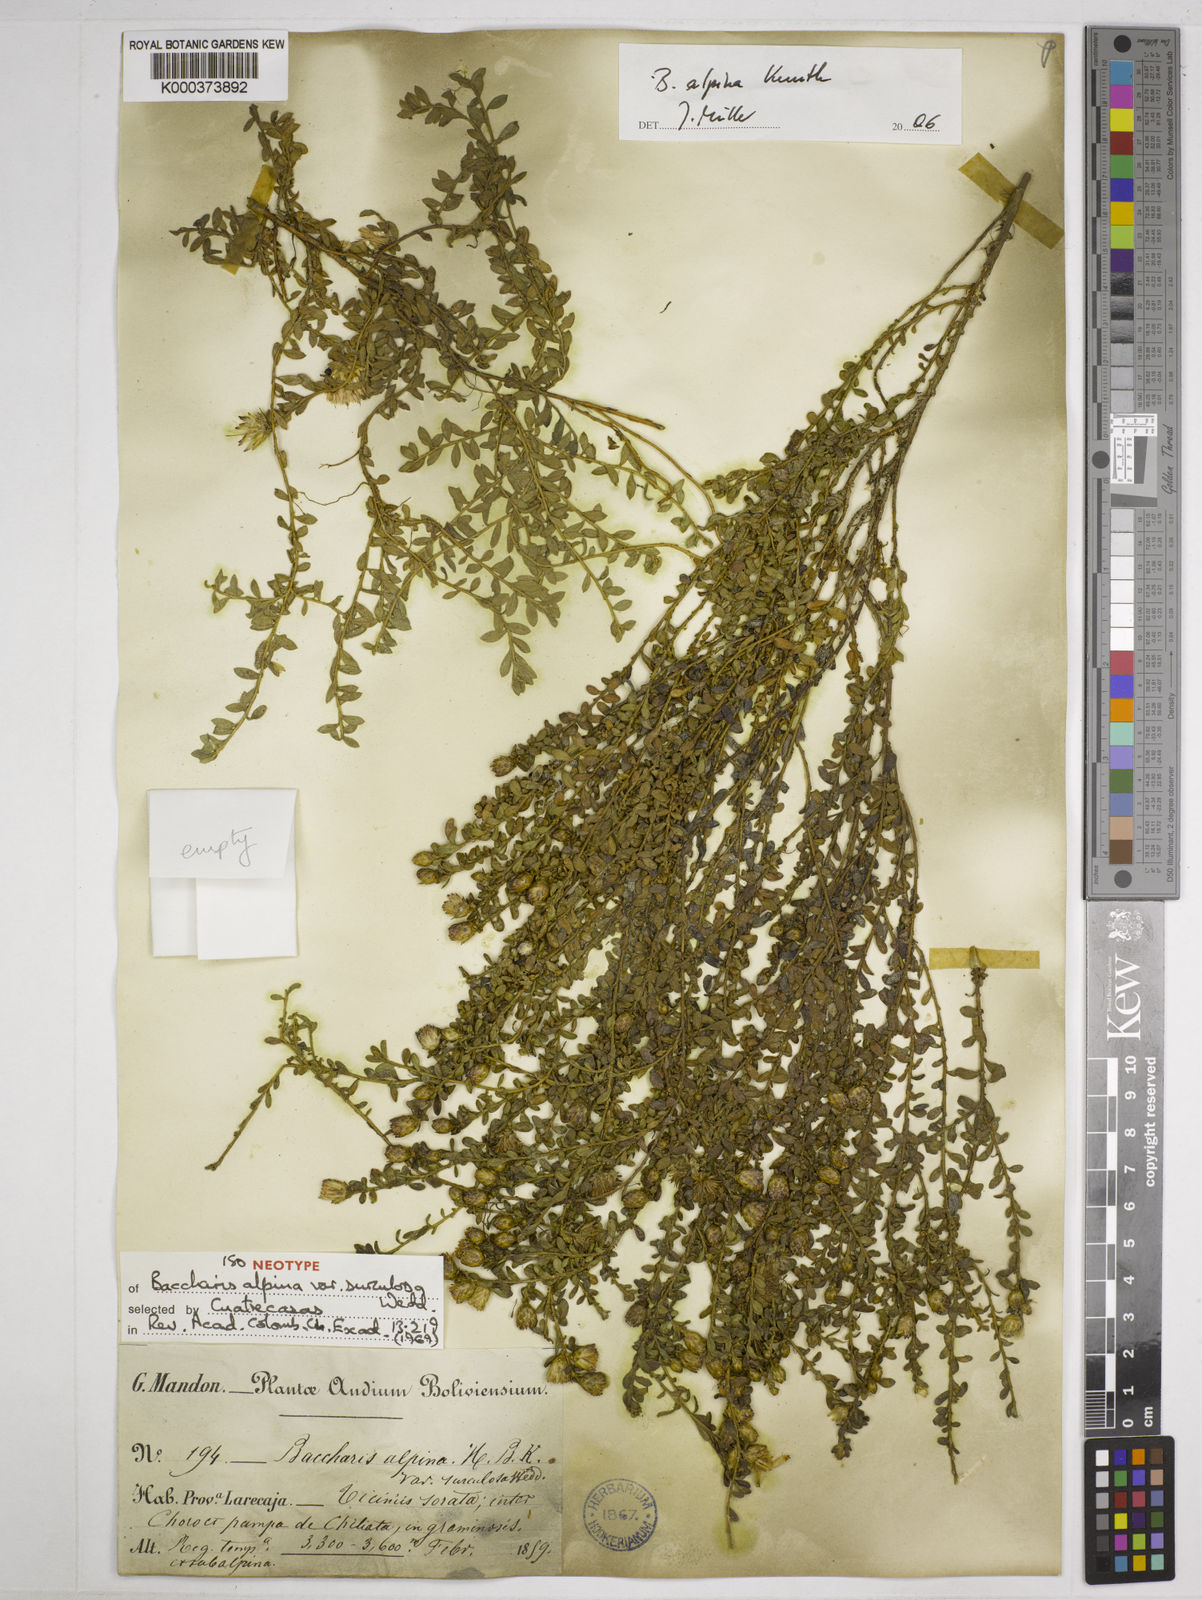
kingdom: Plantae
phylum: Tracheophyta
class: Magnoliopsida
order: Asterales
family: Asteraceae
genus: Baccharis
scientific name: Baccharis alpina
